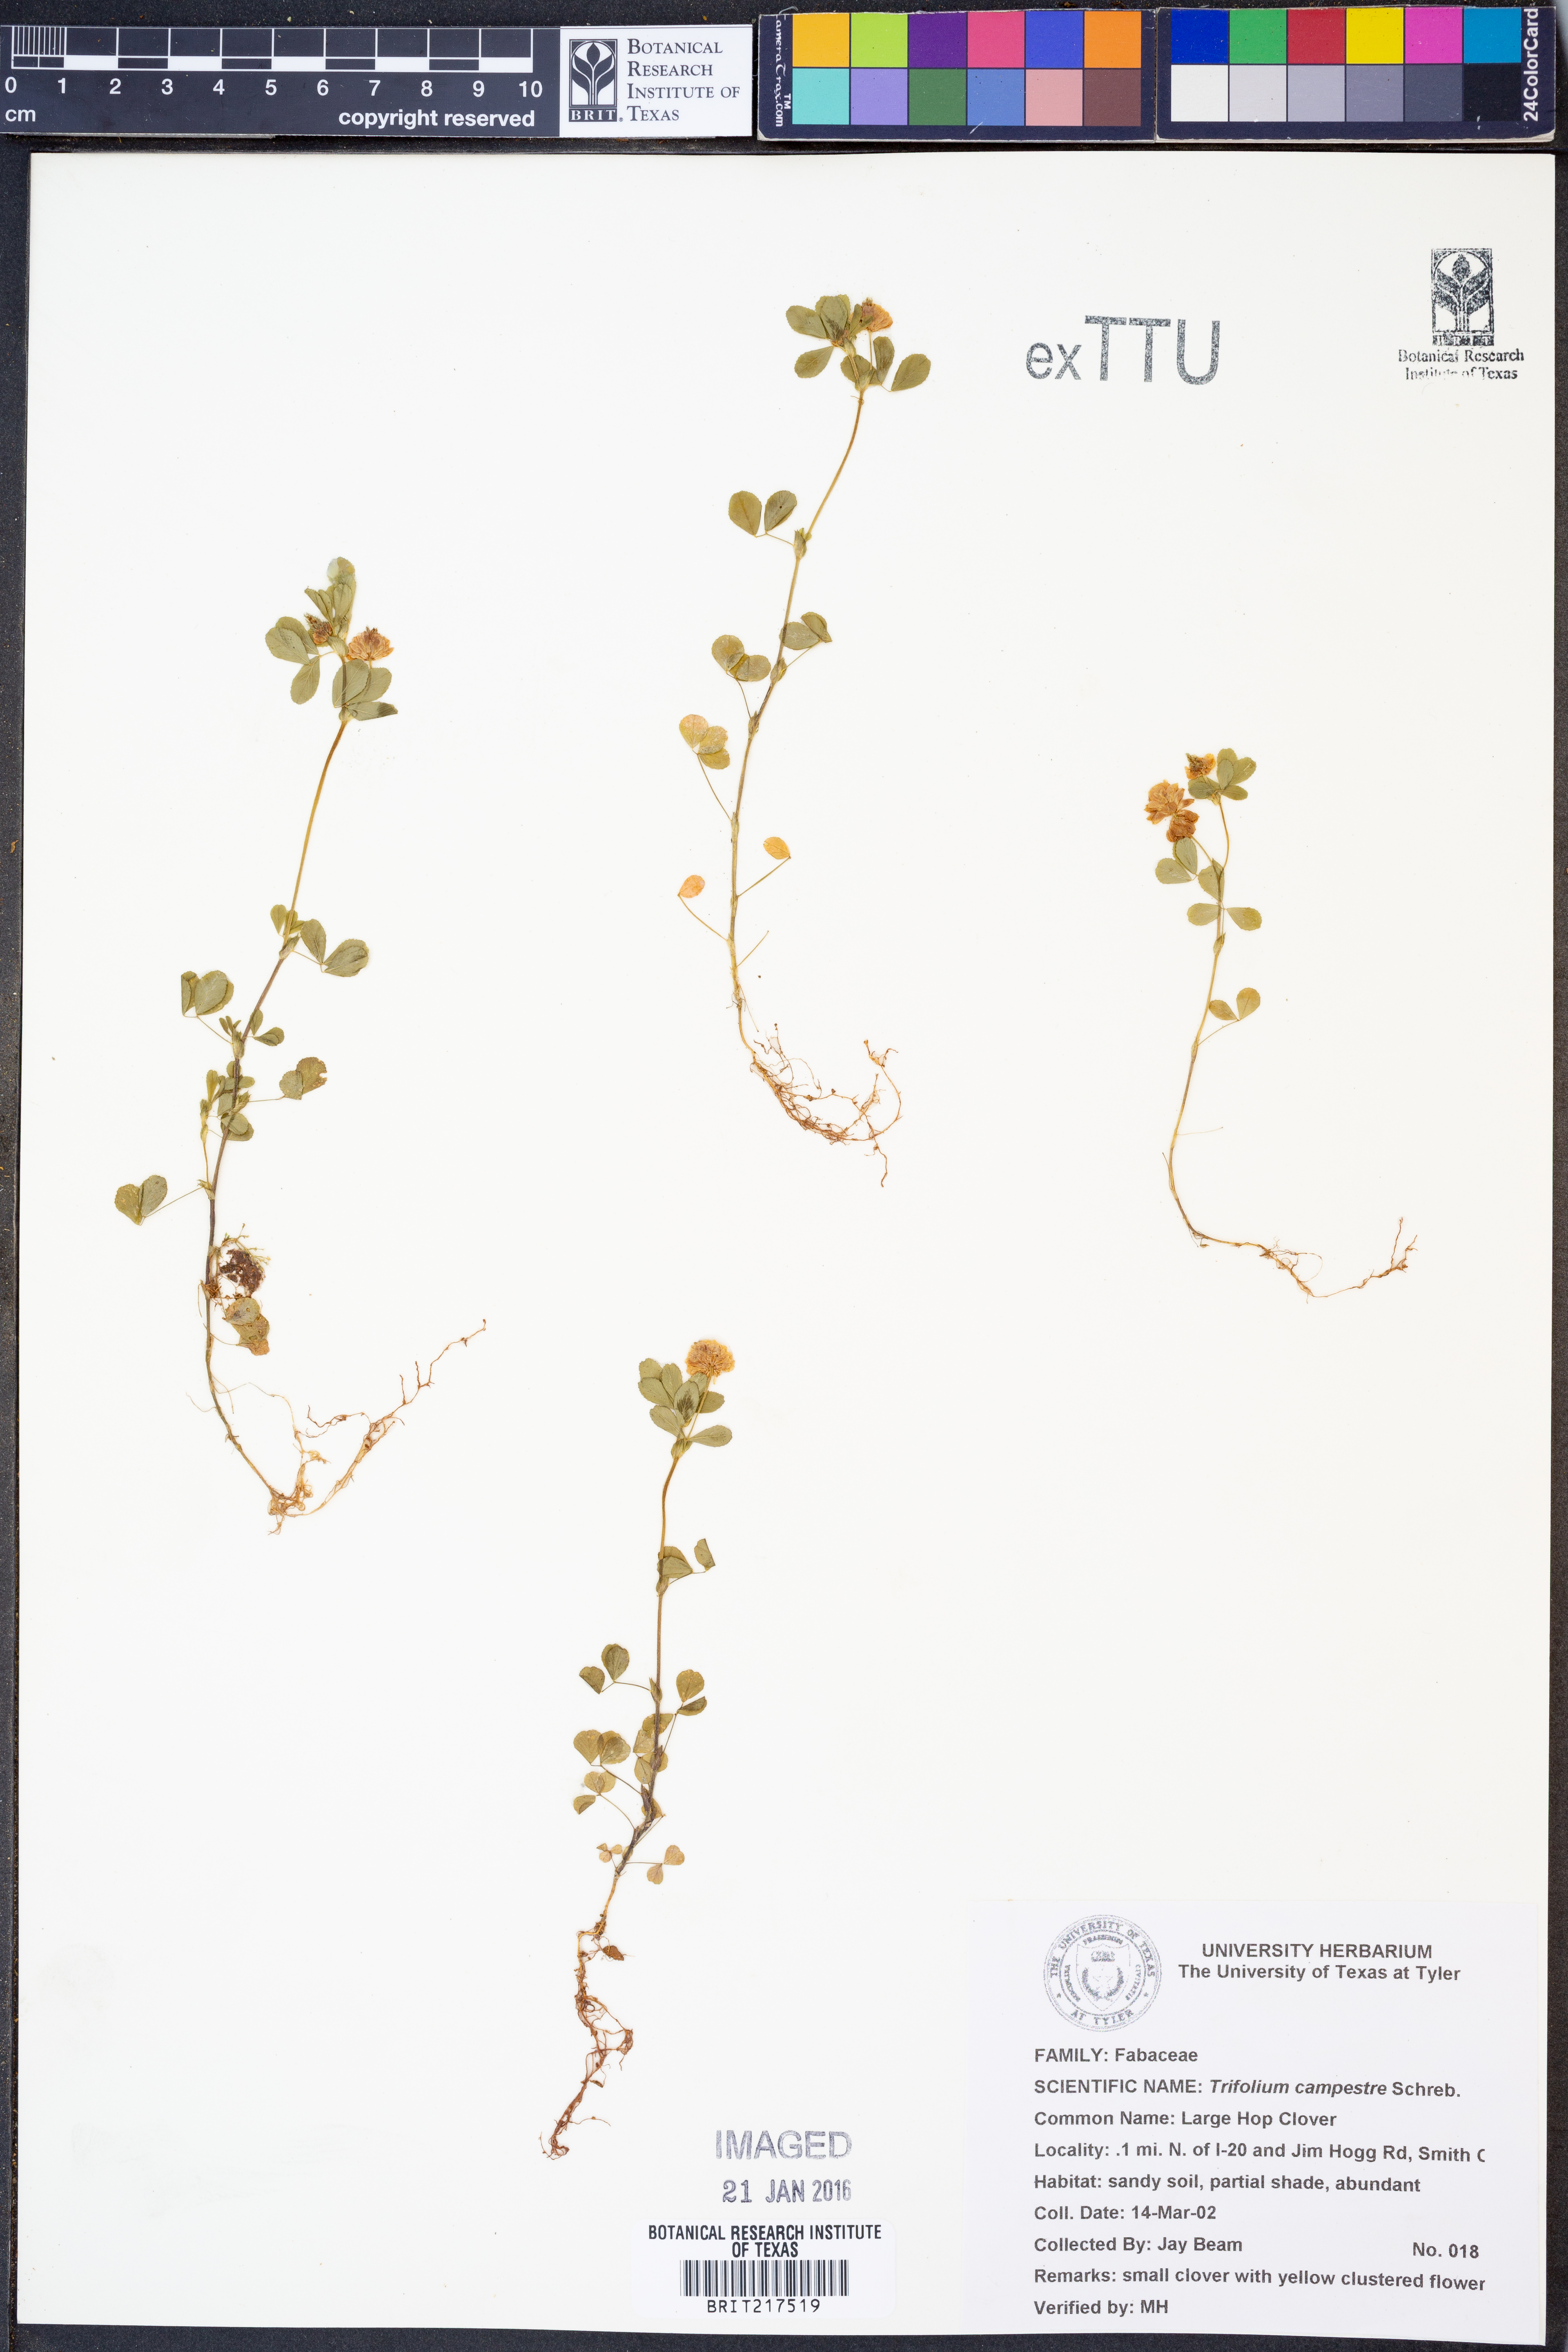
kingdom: Plantae
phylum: Tracheophyta
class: Magnoliopsida
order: Fabales
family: Fabaceae
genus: Trifolium
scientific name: Trifolium campestre
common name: Field clover
